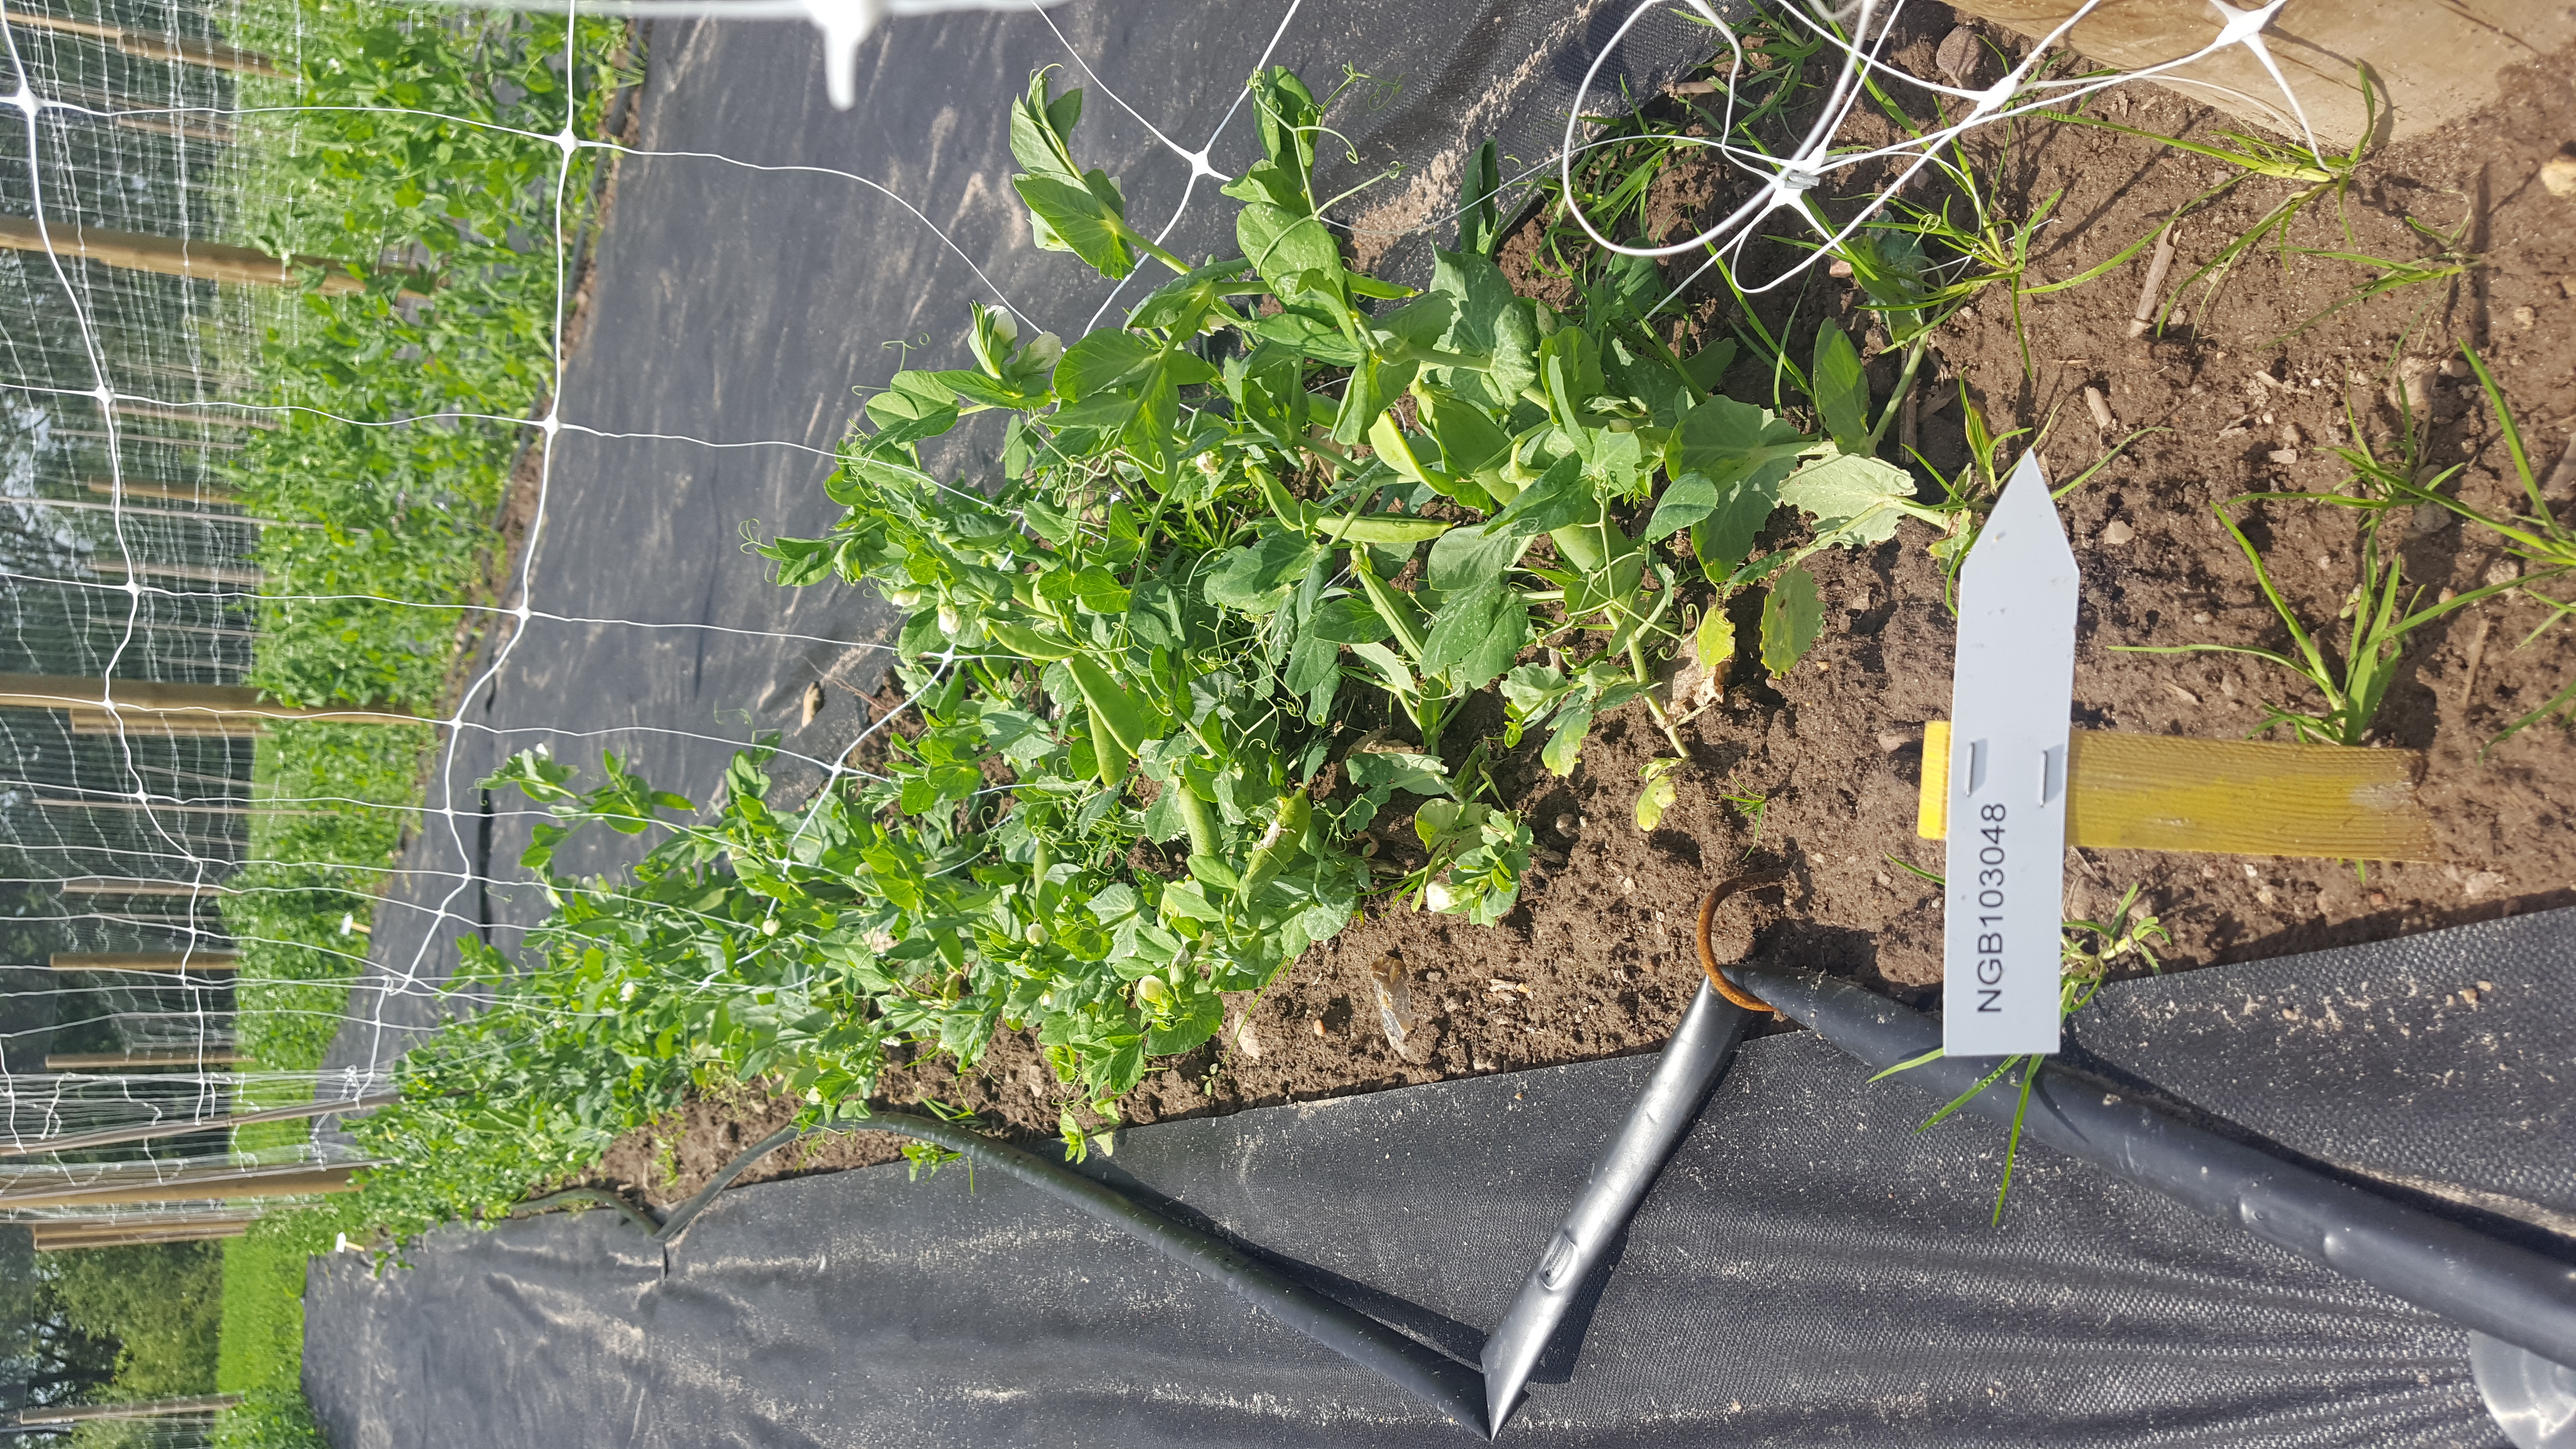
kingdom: Plantae
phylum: Tracheophyta
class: Magnoliopsida
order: Fabales
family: Fabaceae
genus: Lathyrus
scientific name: Lathyrus oleraceus
